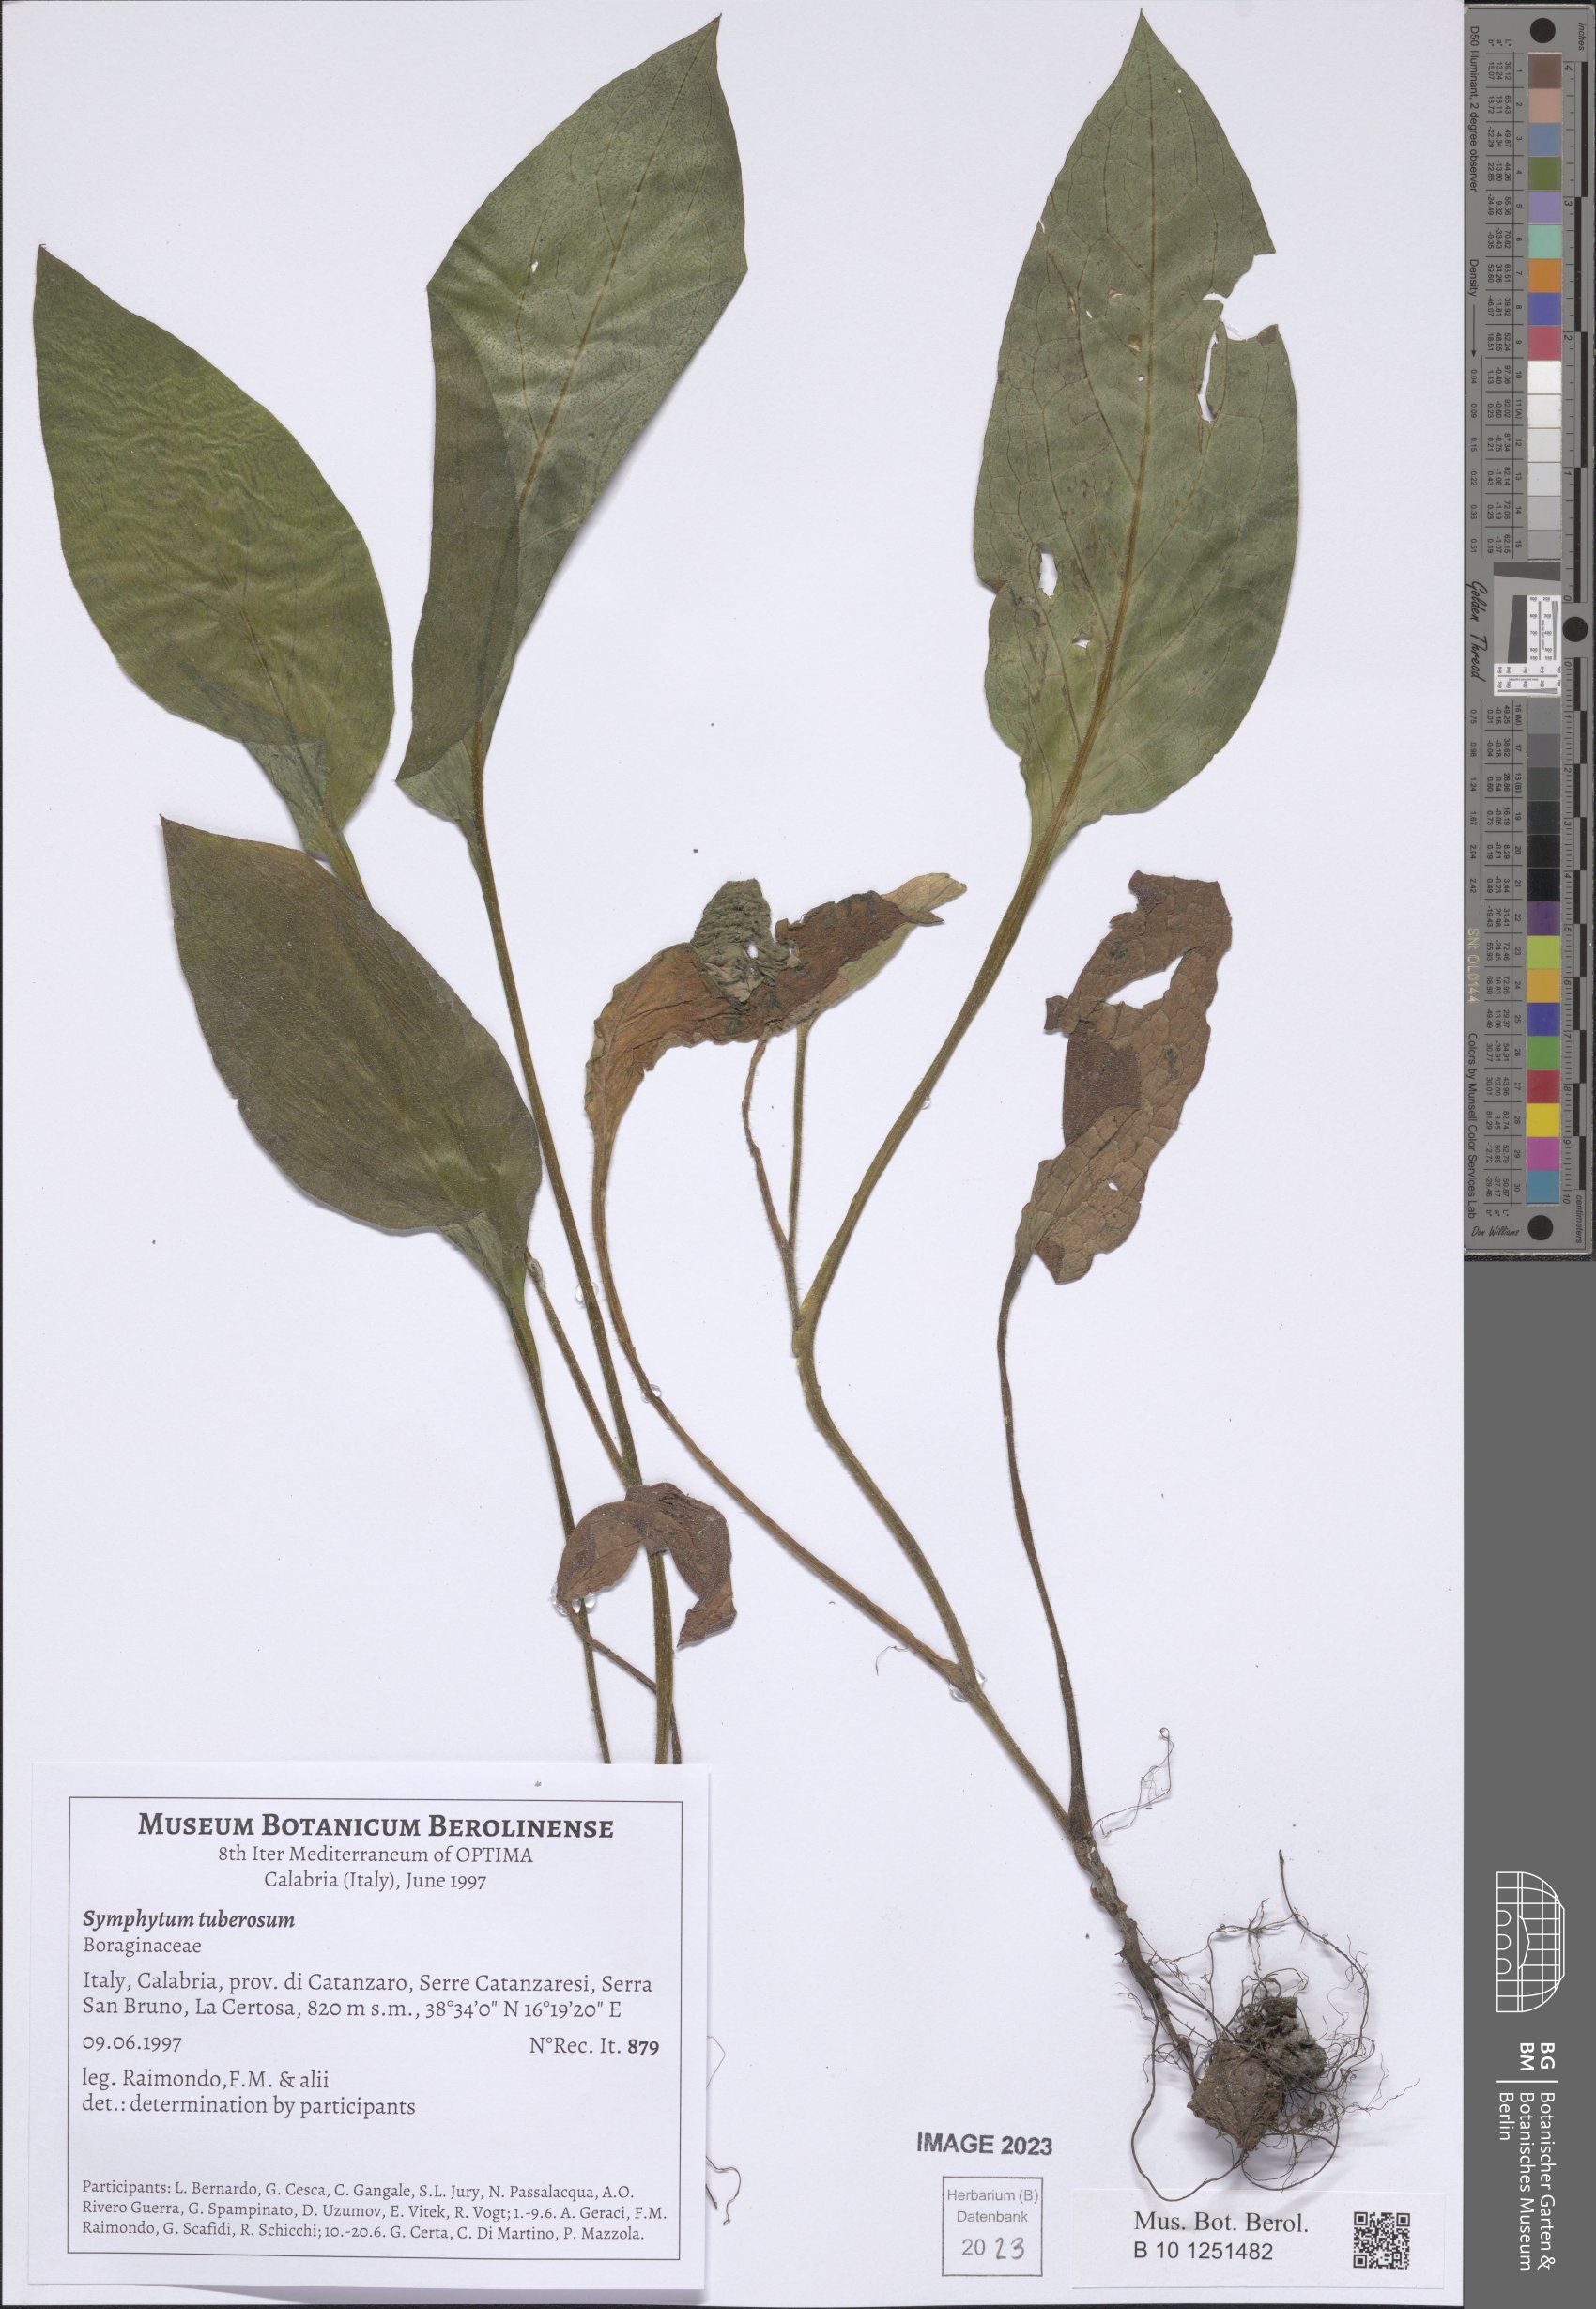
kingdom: Plantae
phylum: Tracheophyta
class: Magnoliopsida
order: Boraginales
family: Boraginaceae
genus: Symphytum
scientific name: Symphytum tuberosum
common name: Tuberous comfrey
